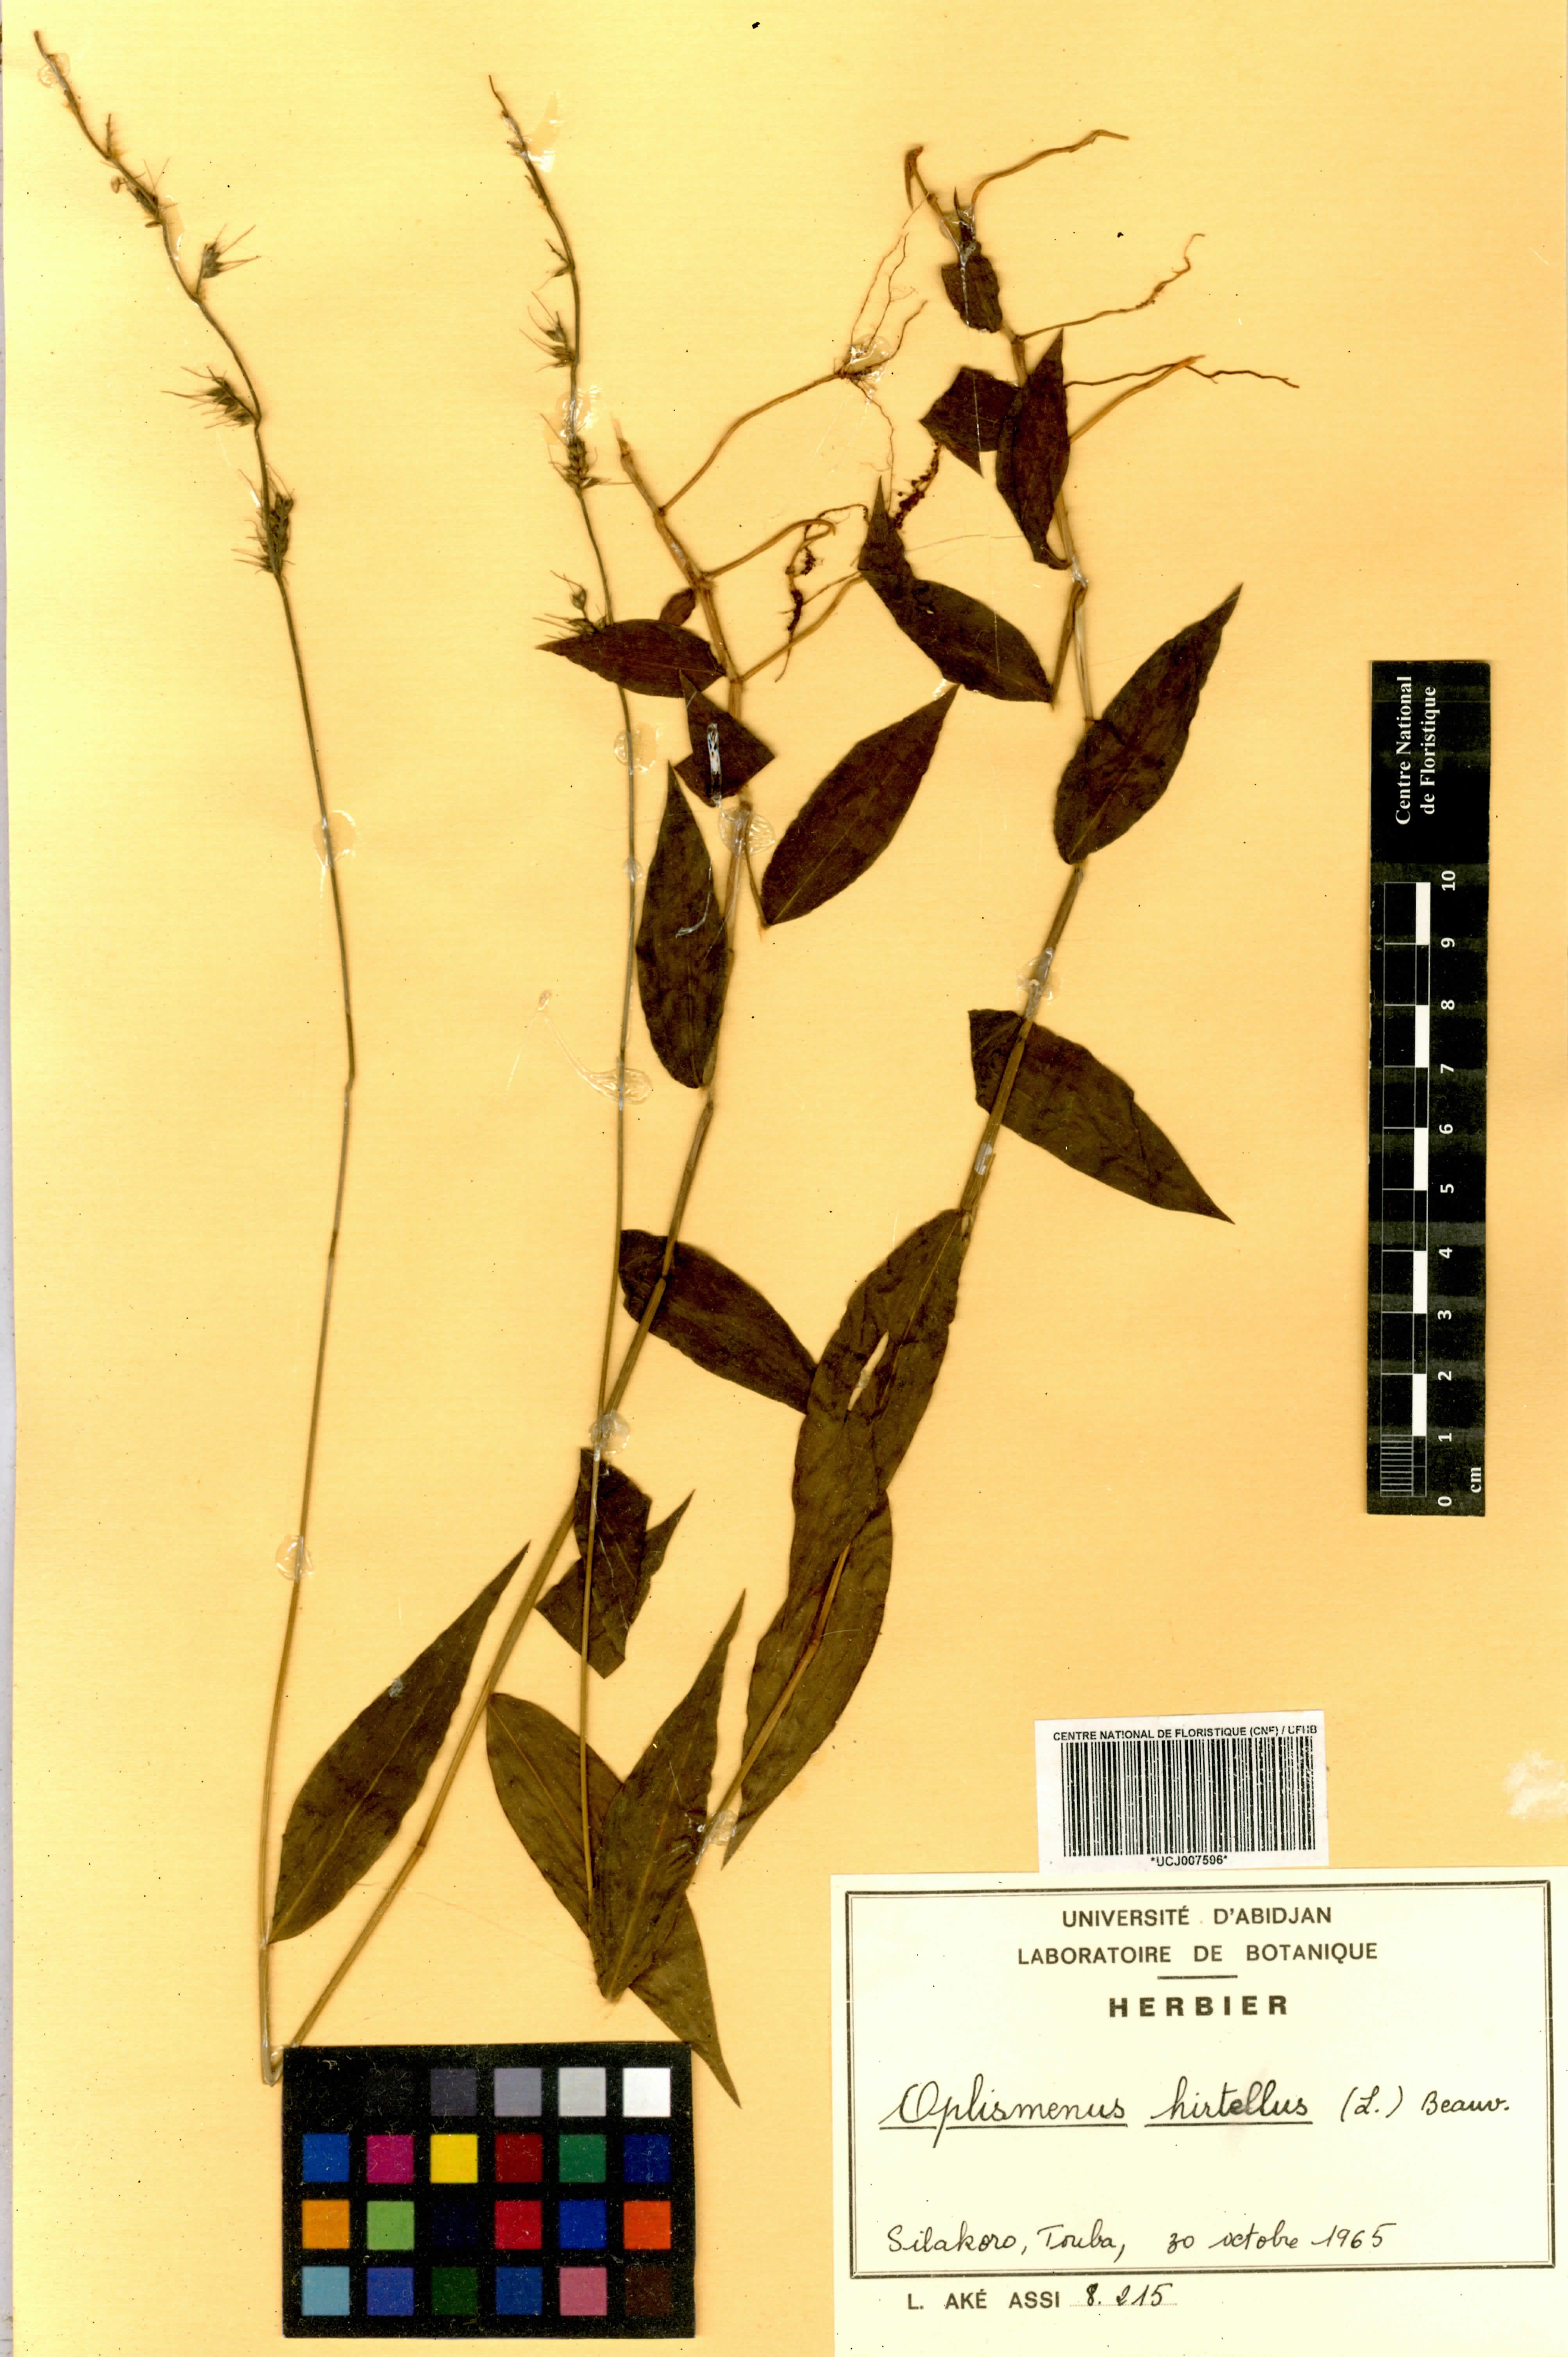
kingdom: Plantae
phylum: Tracheophyta
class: Liliopsida
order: Poales
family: Poaceae
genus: Oplismenus
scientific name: Oplismenus hirtellus
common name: Basketgrass
